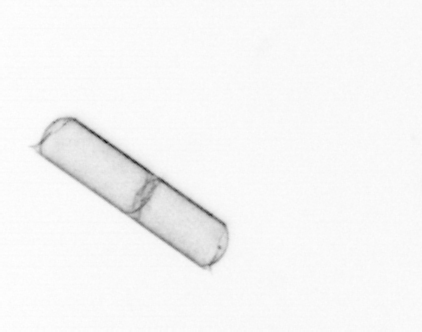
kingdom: Chromista
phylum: Ochrophyta
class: Bacillariophyceae
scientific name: Bacillariophyceae
